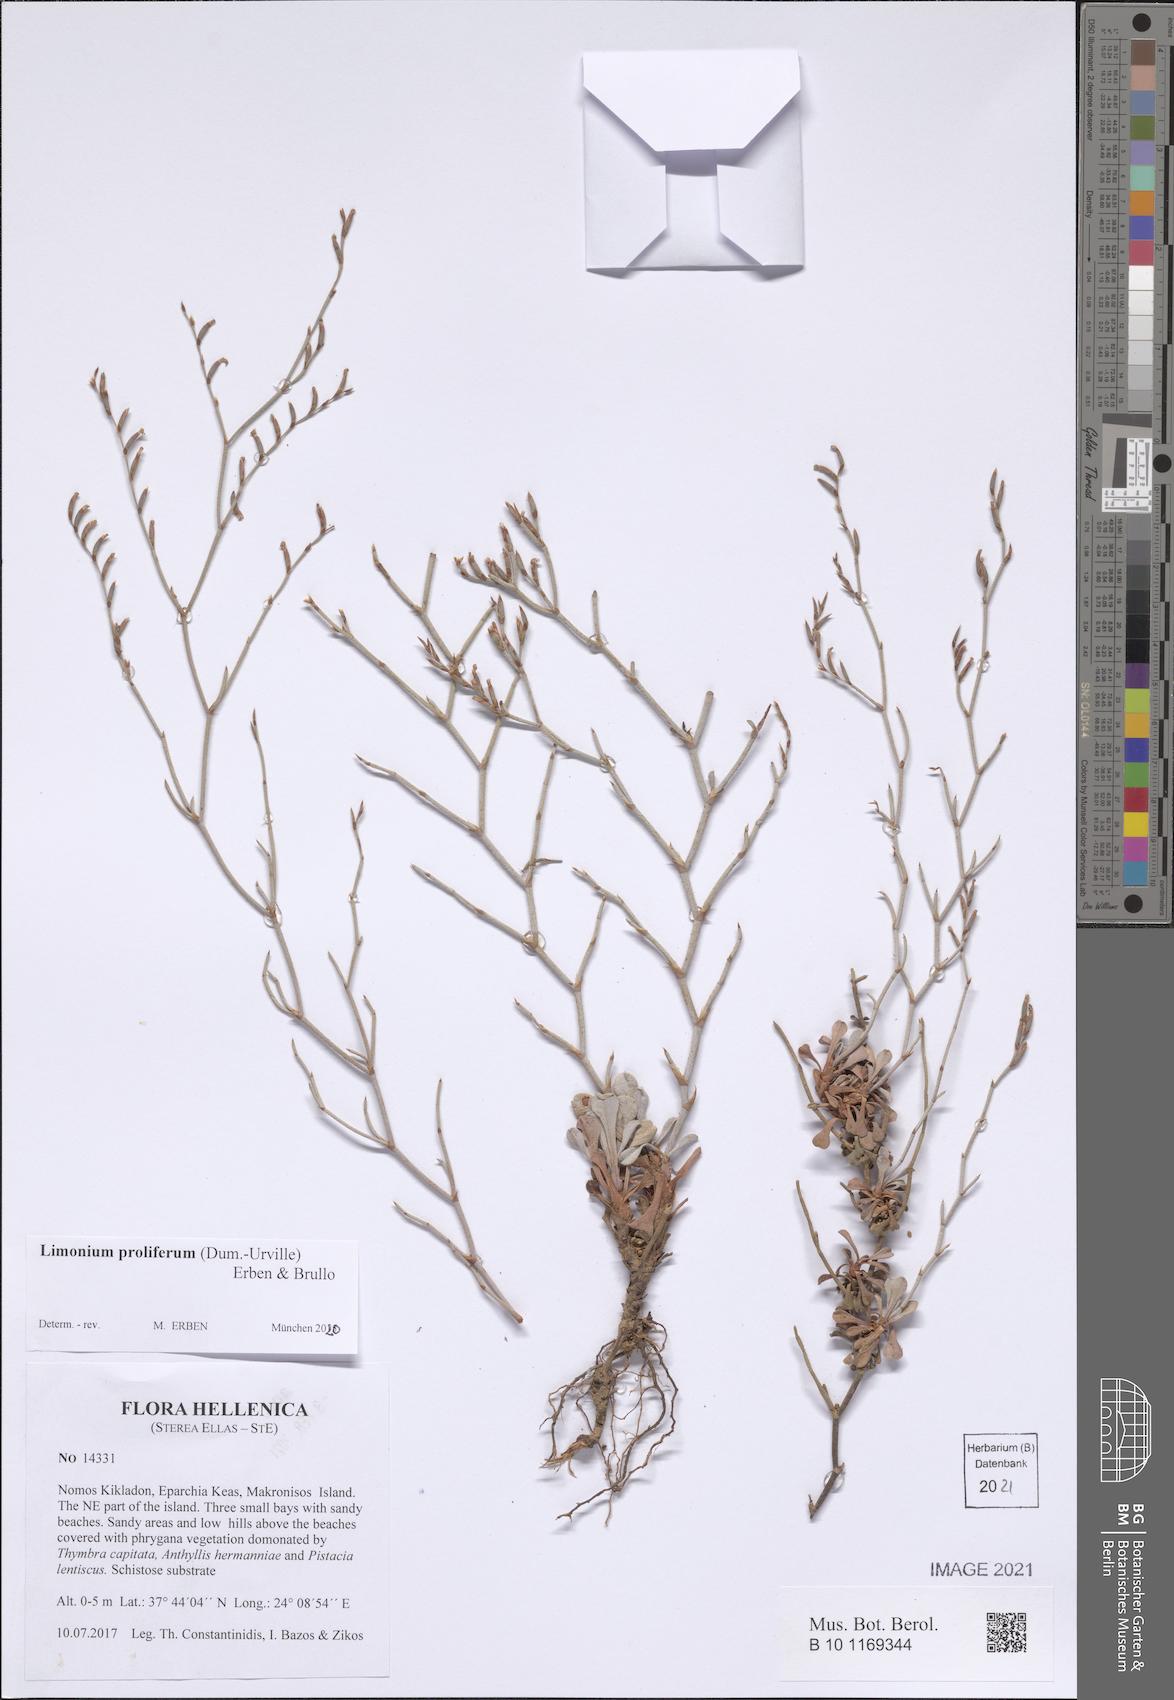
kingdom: Plantae
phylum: Tracheophyta
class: Magnoliopsida
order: Caryophyllales
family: Plumbaginaceae
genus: Limonium
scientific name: Limonium proliferum
